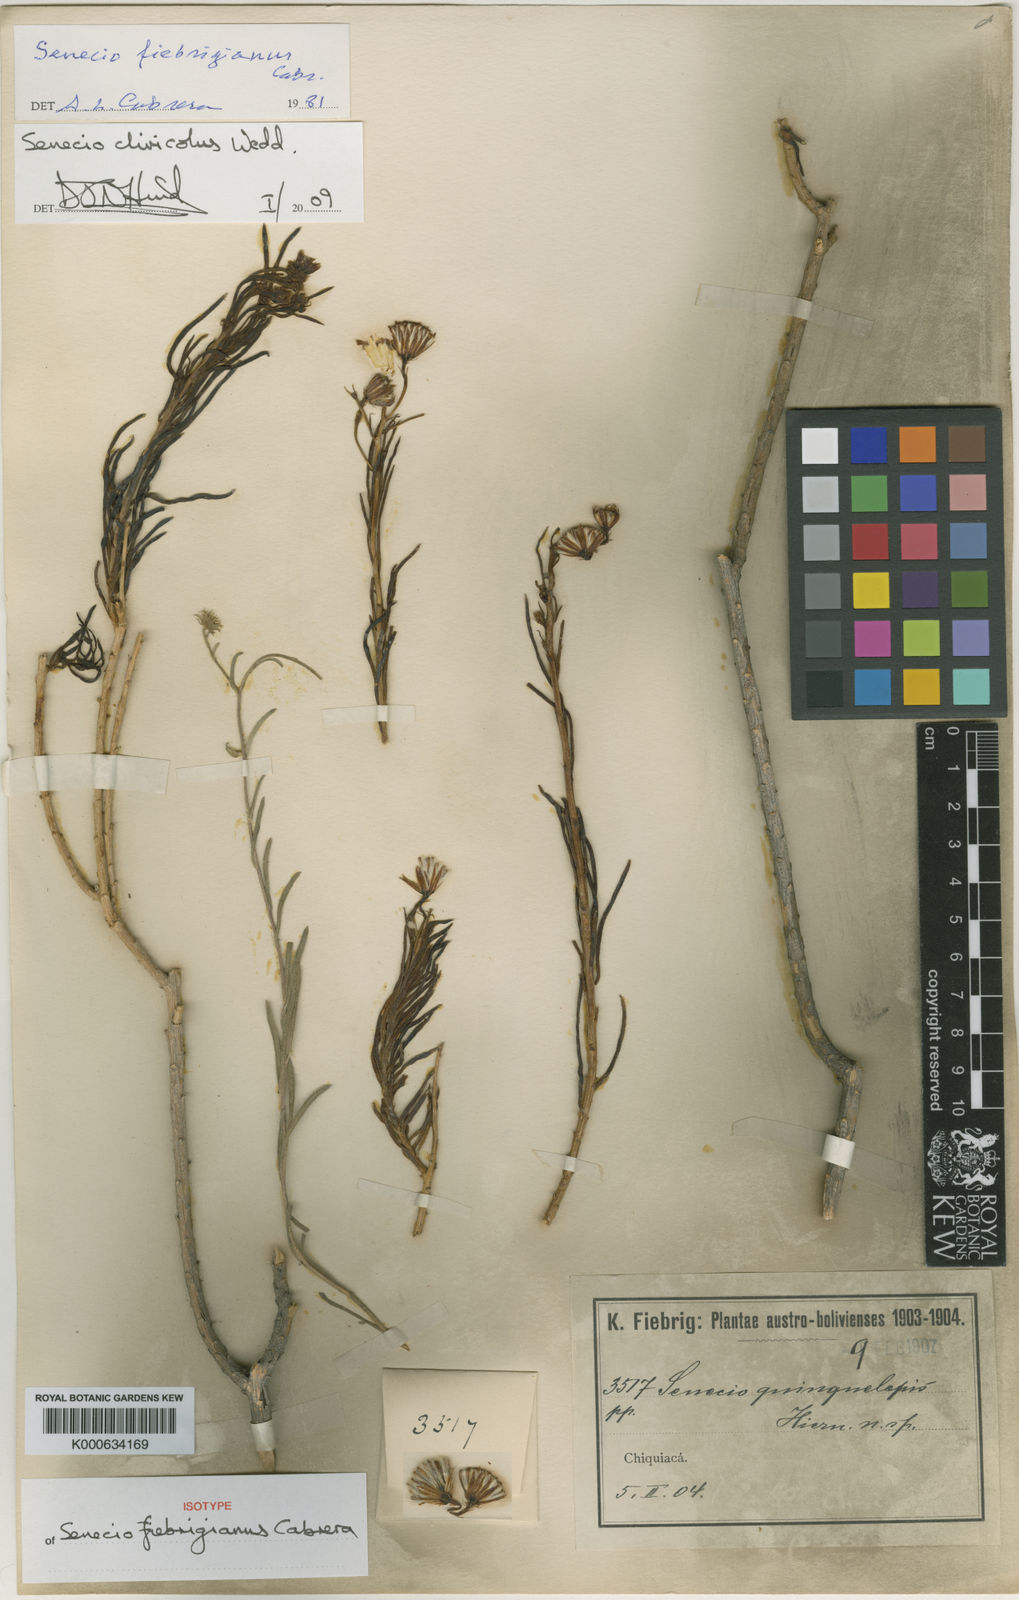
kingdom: Plantae
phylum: Tracheophyta
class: Magnoliopsida
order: Asterales
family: Asteraceae
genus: Senecio
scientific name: Senecio clivicola
